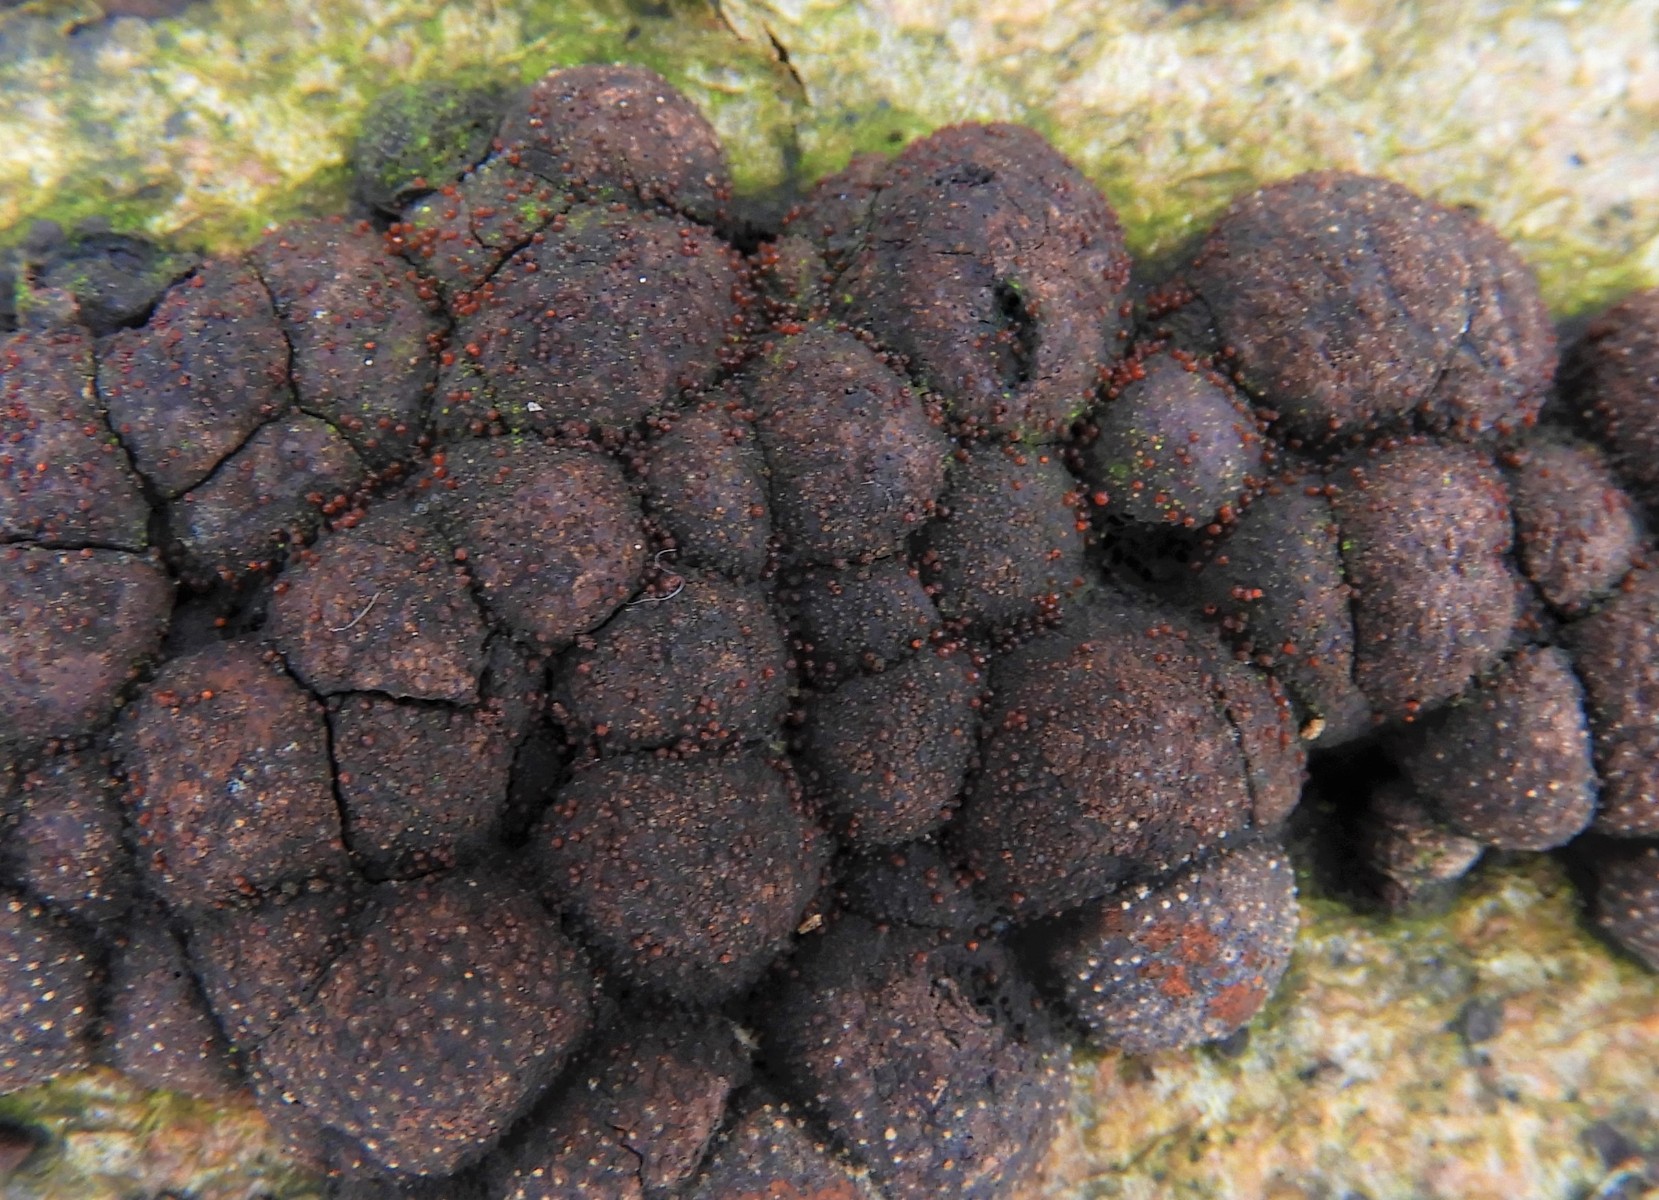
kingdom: Fungi
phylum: Ascomycota
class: Sordariomycetes
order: Hypocreales
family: Nectriaceae
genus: Cosmospora
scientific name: Cosmospora arxii
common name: kuljordbær-cinnobersvamp
